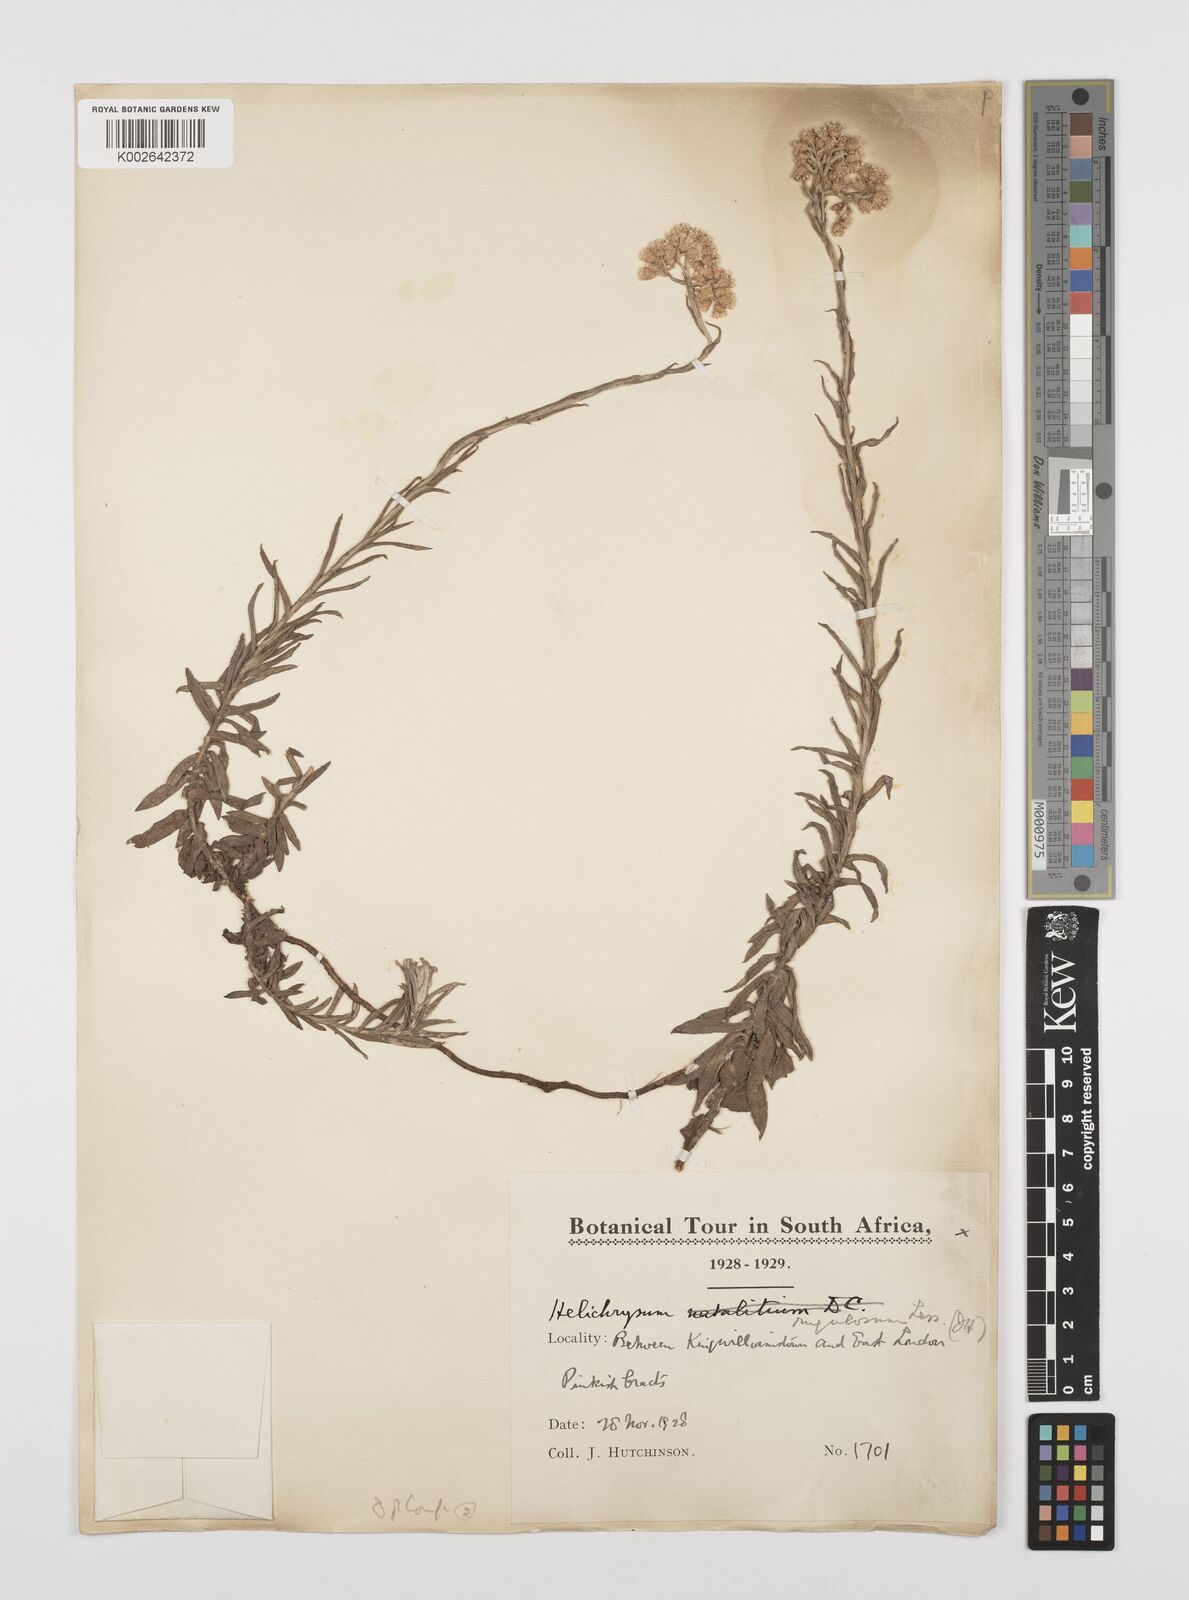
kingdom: Plantae
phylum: Tracheophyta
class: Magnoliopsida
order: Asterales
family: Asteraceae
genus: Helichrysum
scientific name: Helichrysum rugulosum
